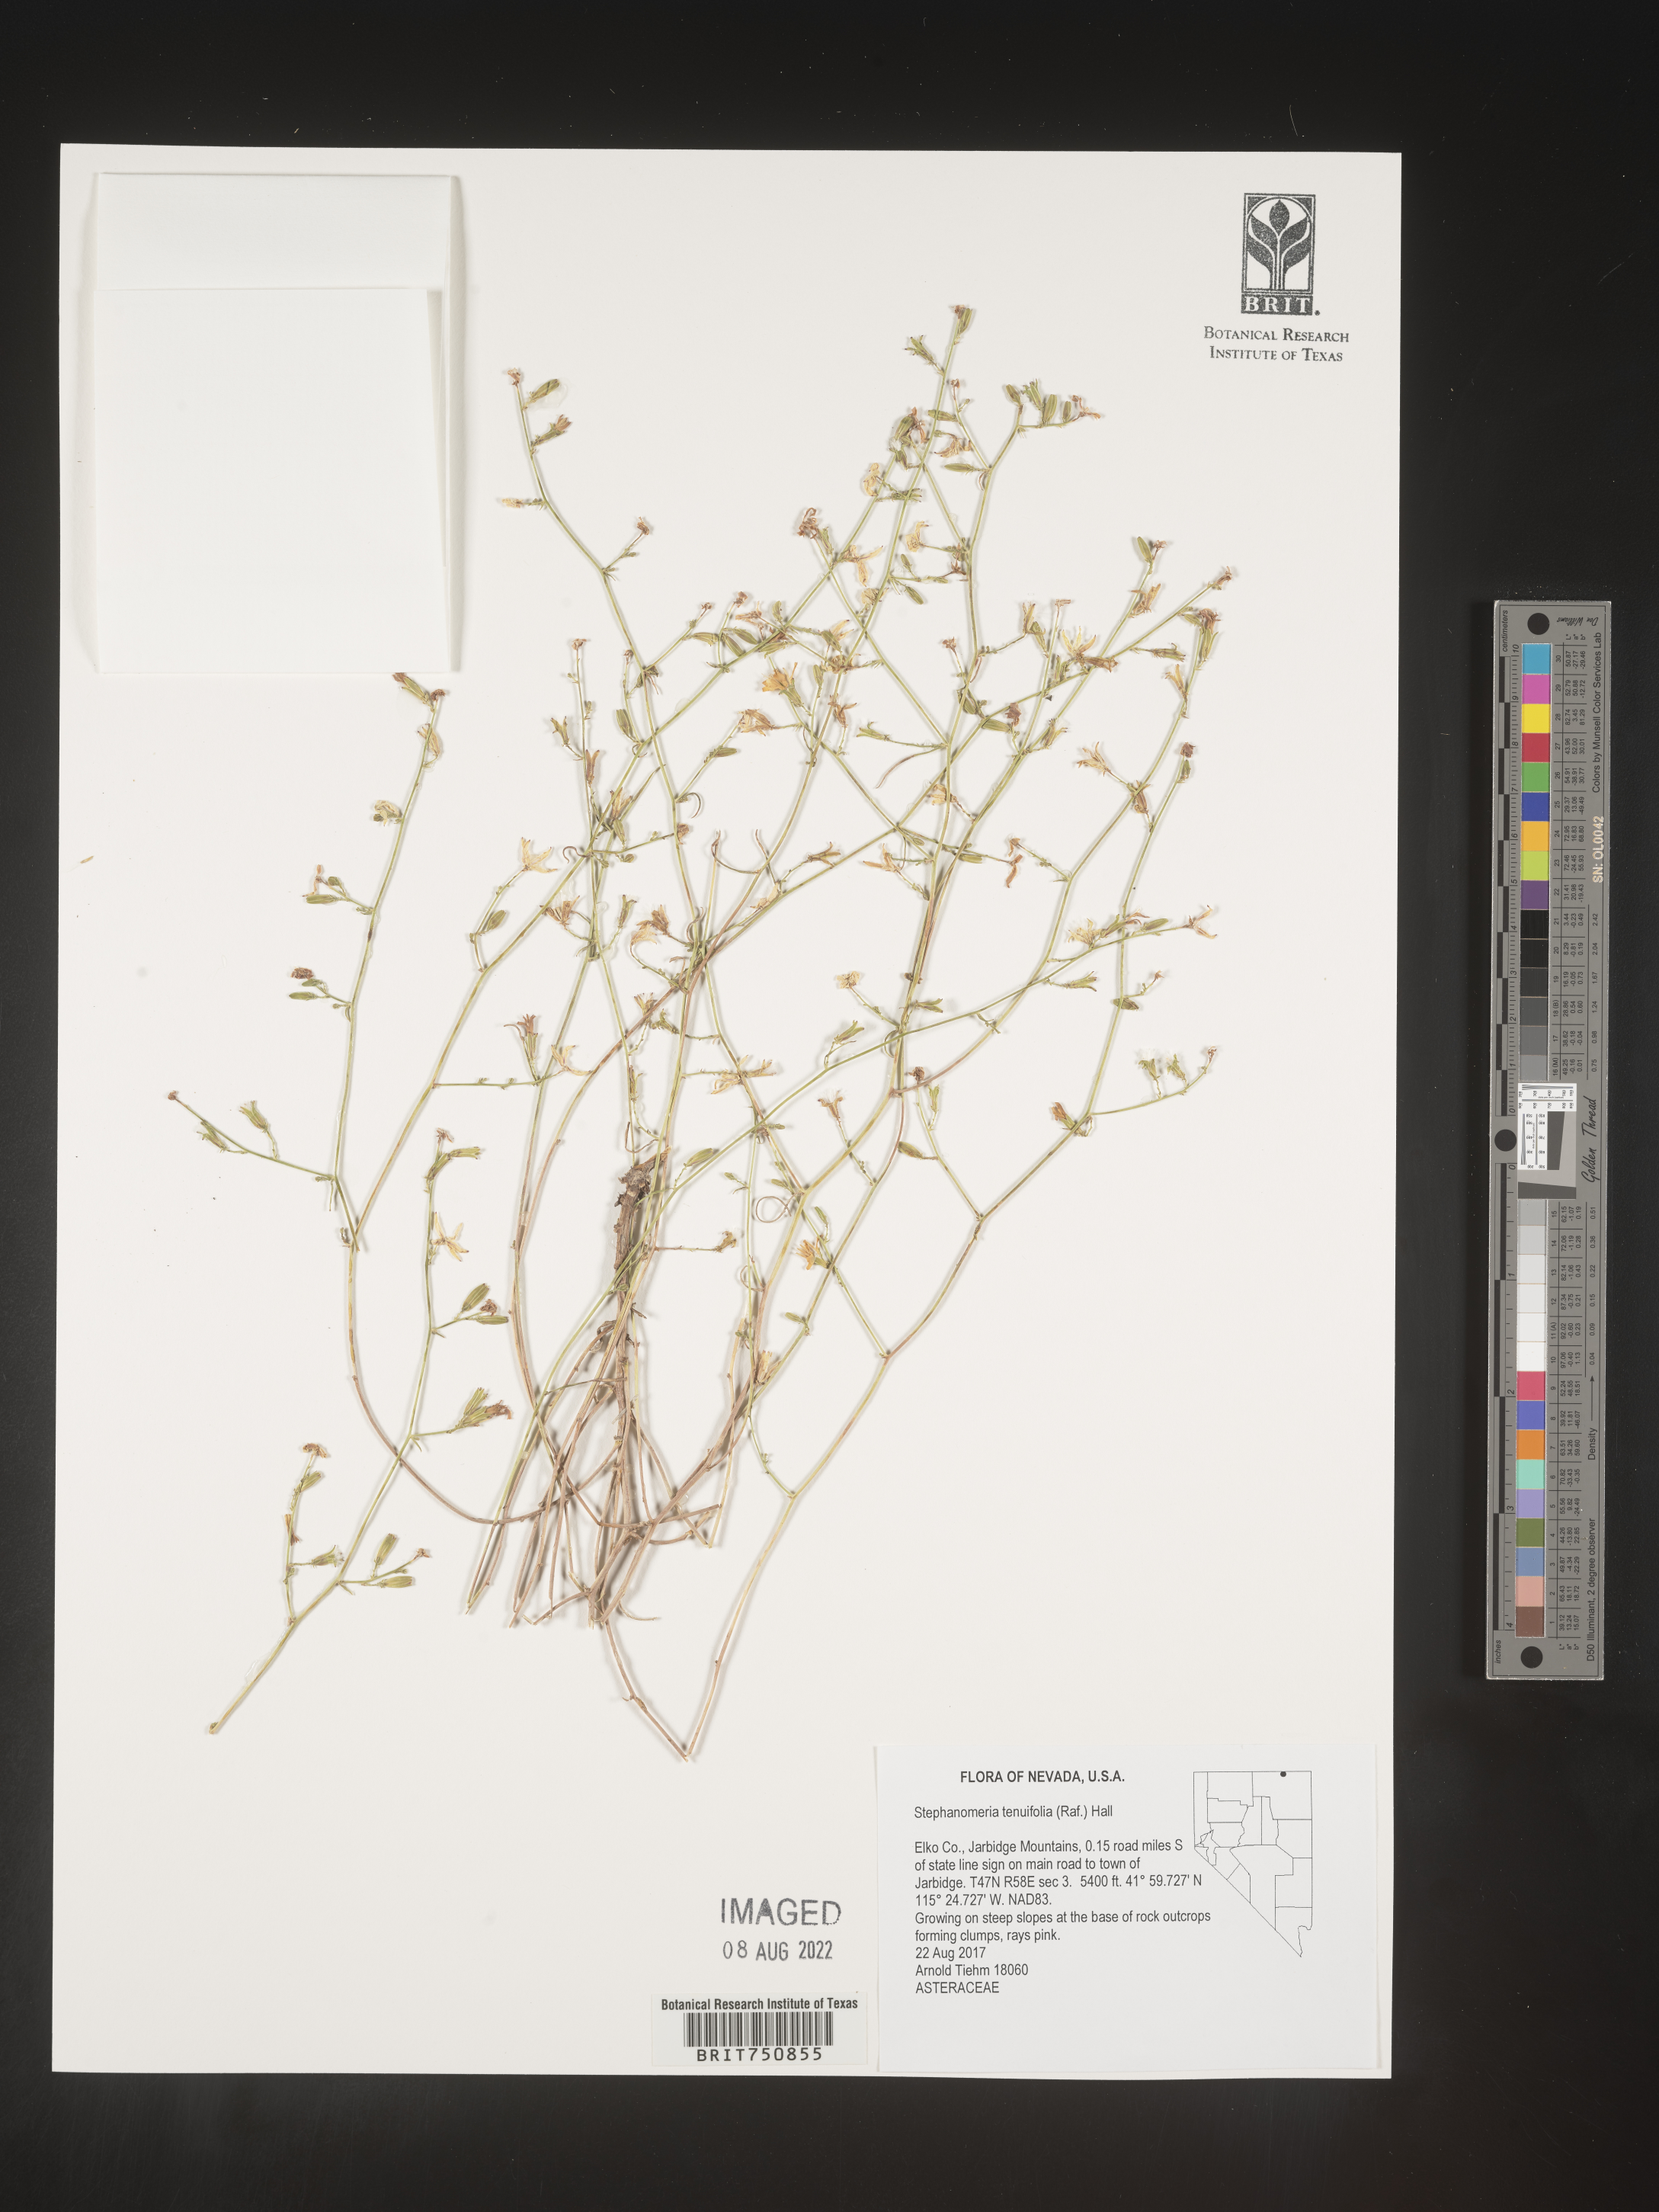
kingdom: Plantae
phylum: Tracheophyta
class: Magnoliopsida
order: Asterales
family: Asteraceae
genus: Stephanomeria
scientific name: Stephanomeria tenuifolia
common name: Slender wirelettuce
